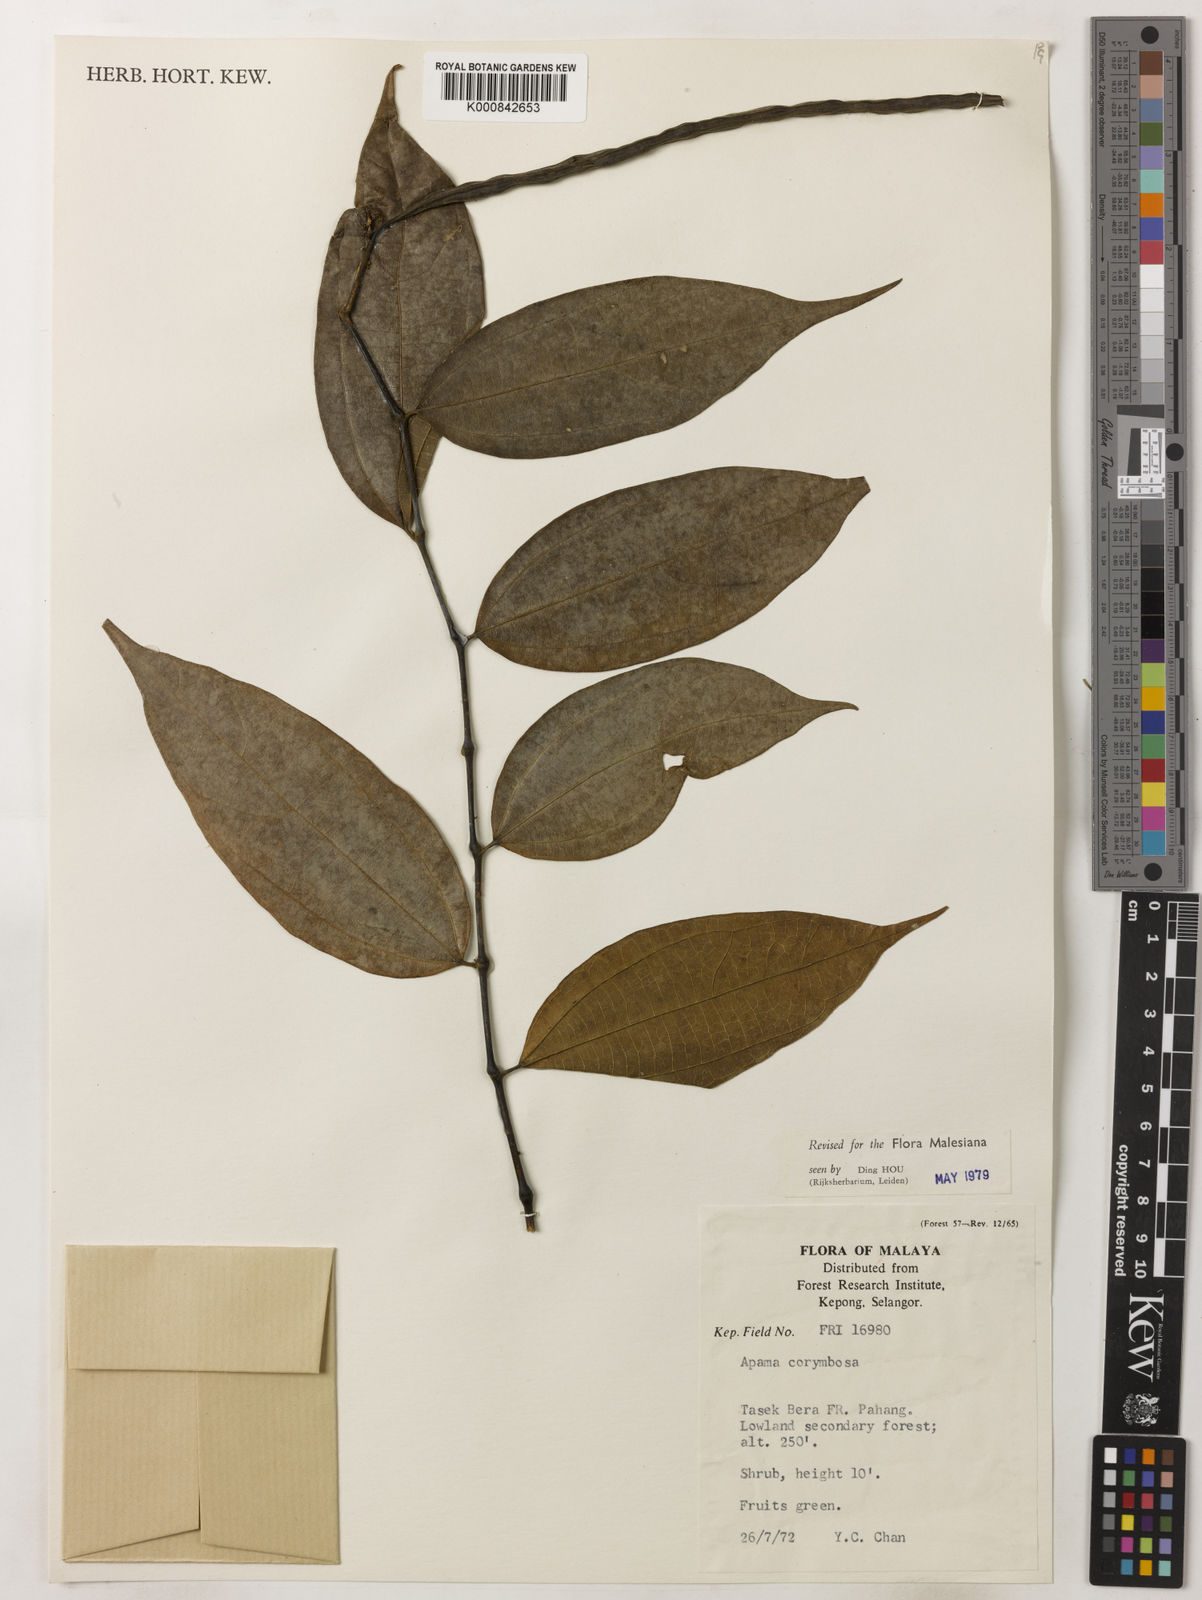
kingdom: Plantae
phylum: Tracheophyta
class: Magnoliopsida
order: Piperales
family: Aristolochiaceae
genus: Thottea
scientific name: Thottea piperiformis
